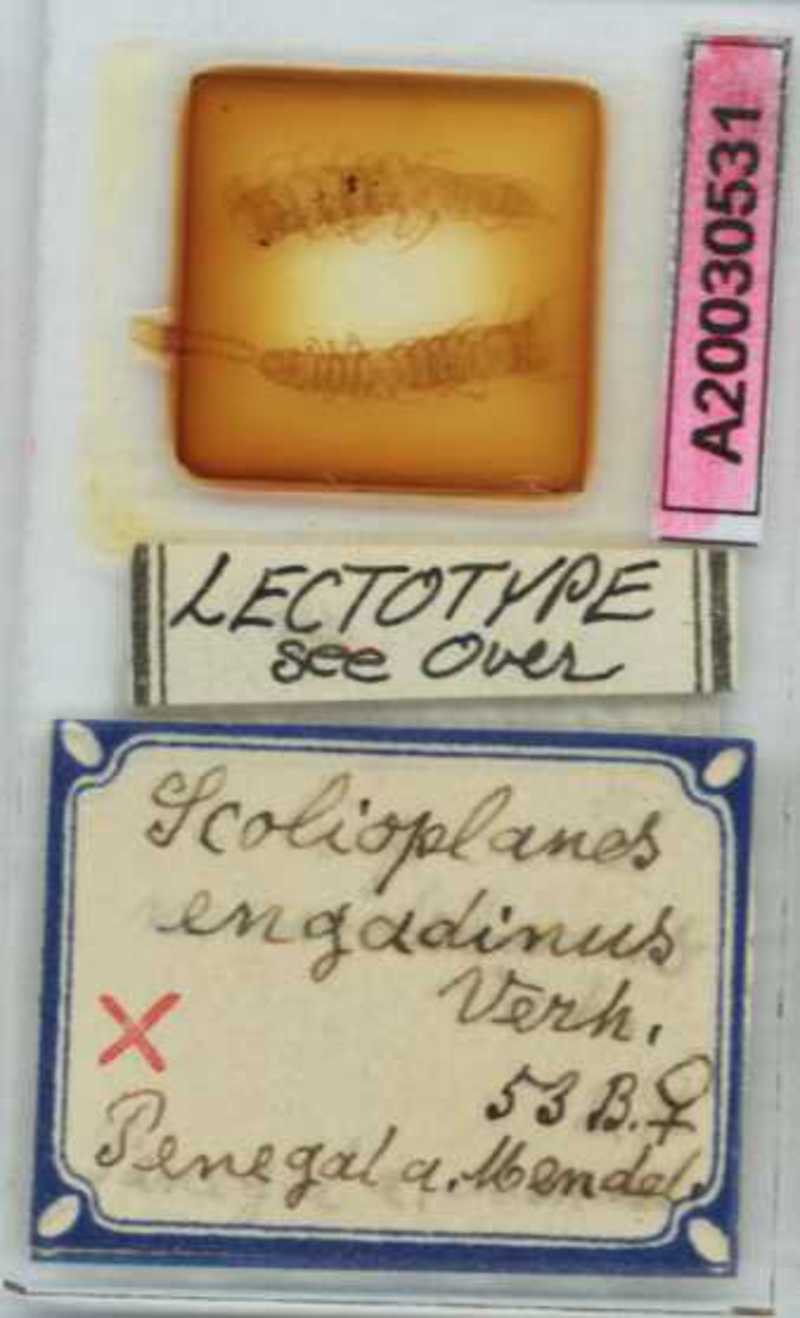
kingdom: Animalia
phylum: Arthropoda
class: Chilopoda
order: Geophilomorpha
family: Linotaeniidae
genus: Strigamia
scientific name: Strigamia engadina
